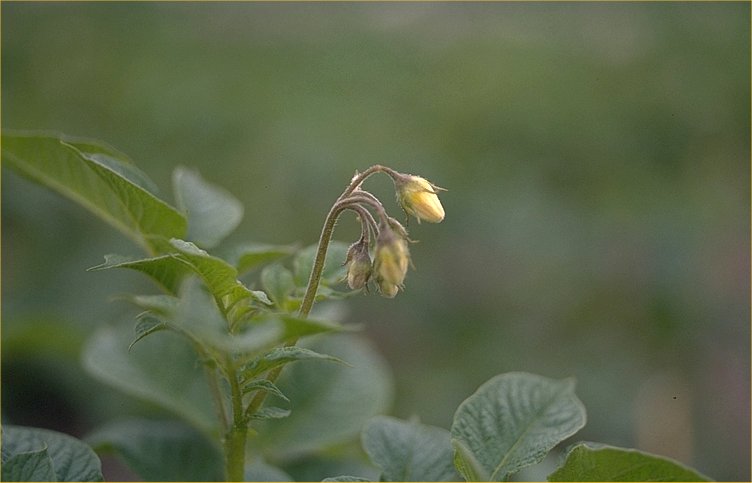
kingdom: Plantae
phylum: Tracheophyta
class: Magnoliopsida
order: Solanales
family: Solanaceae
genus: Solanum
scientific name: Solanum tuberosum
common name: Potato
